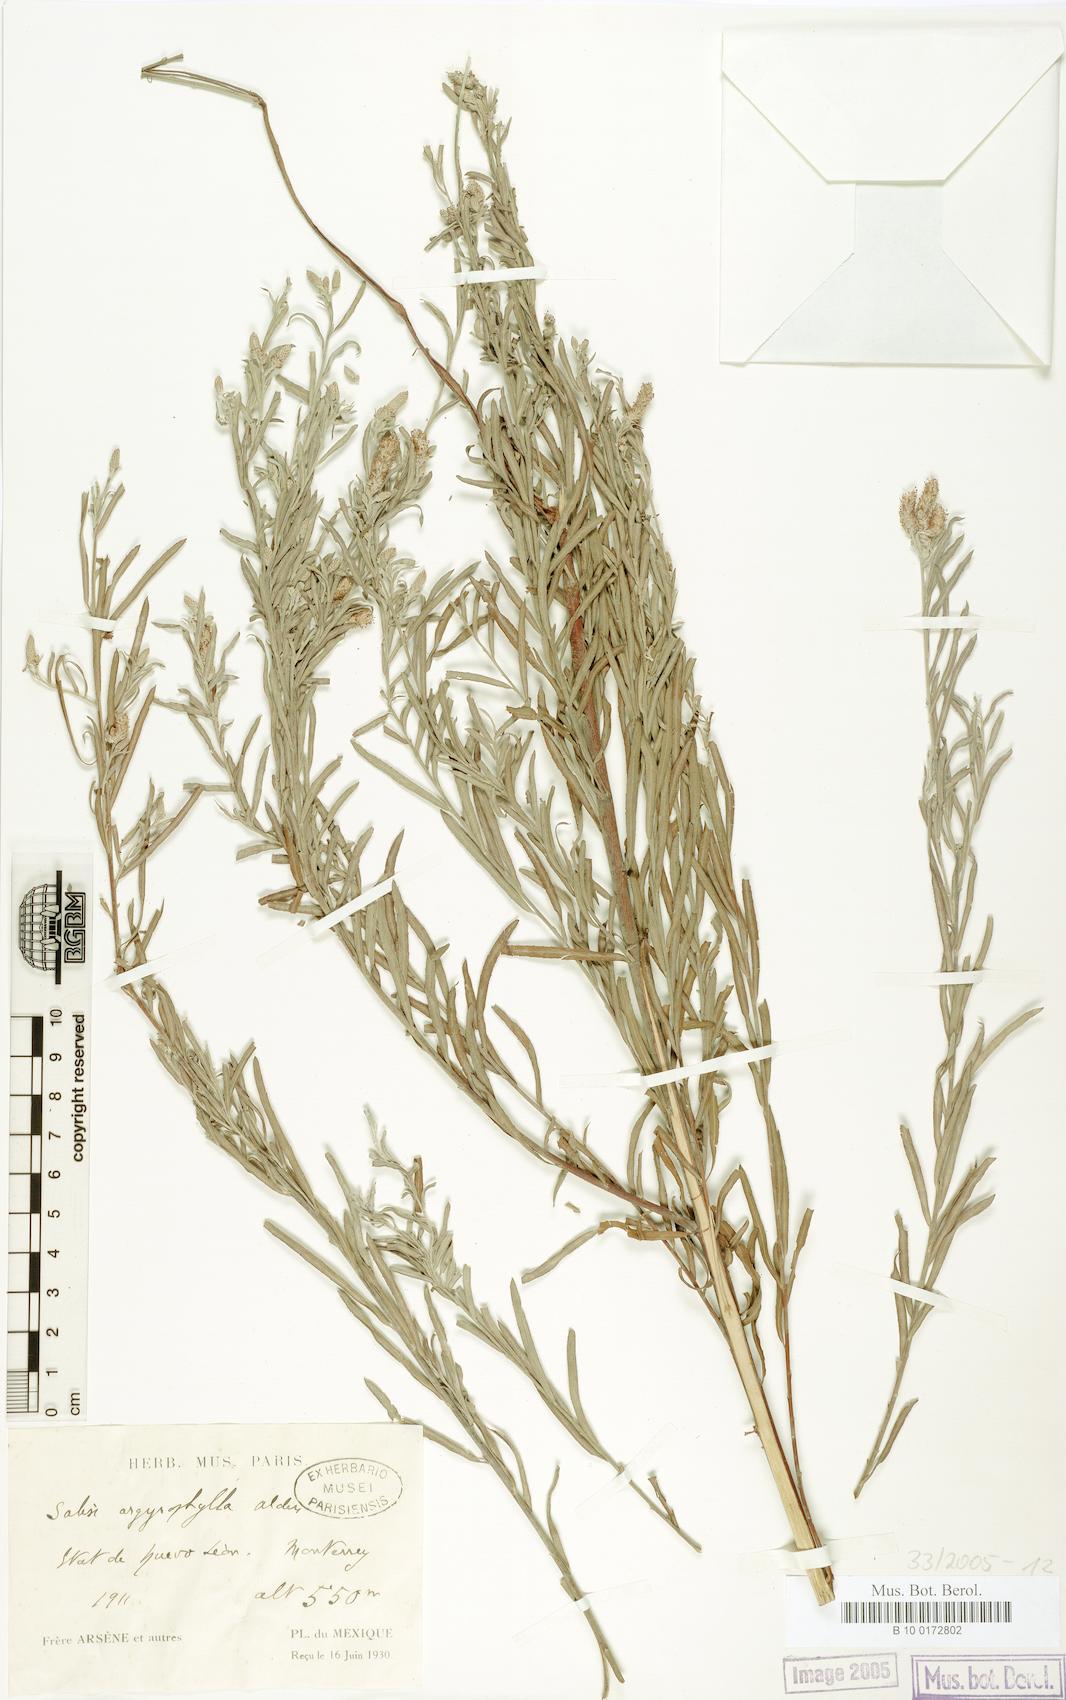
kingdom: Plantae
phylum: Tracheophyta
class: Magnoliopsida
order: Malpighiales
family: Salicaceae
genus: Salix
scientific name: Salix pantosericea
